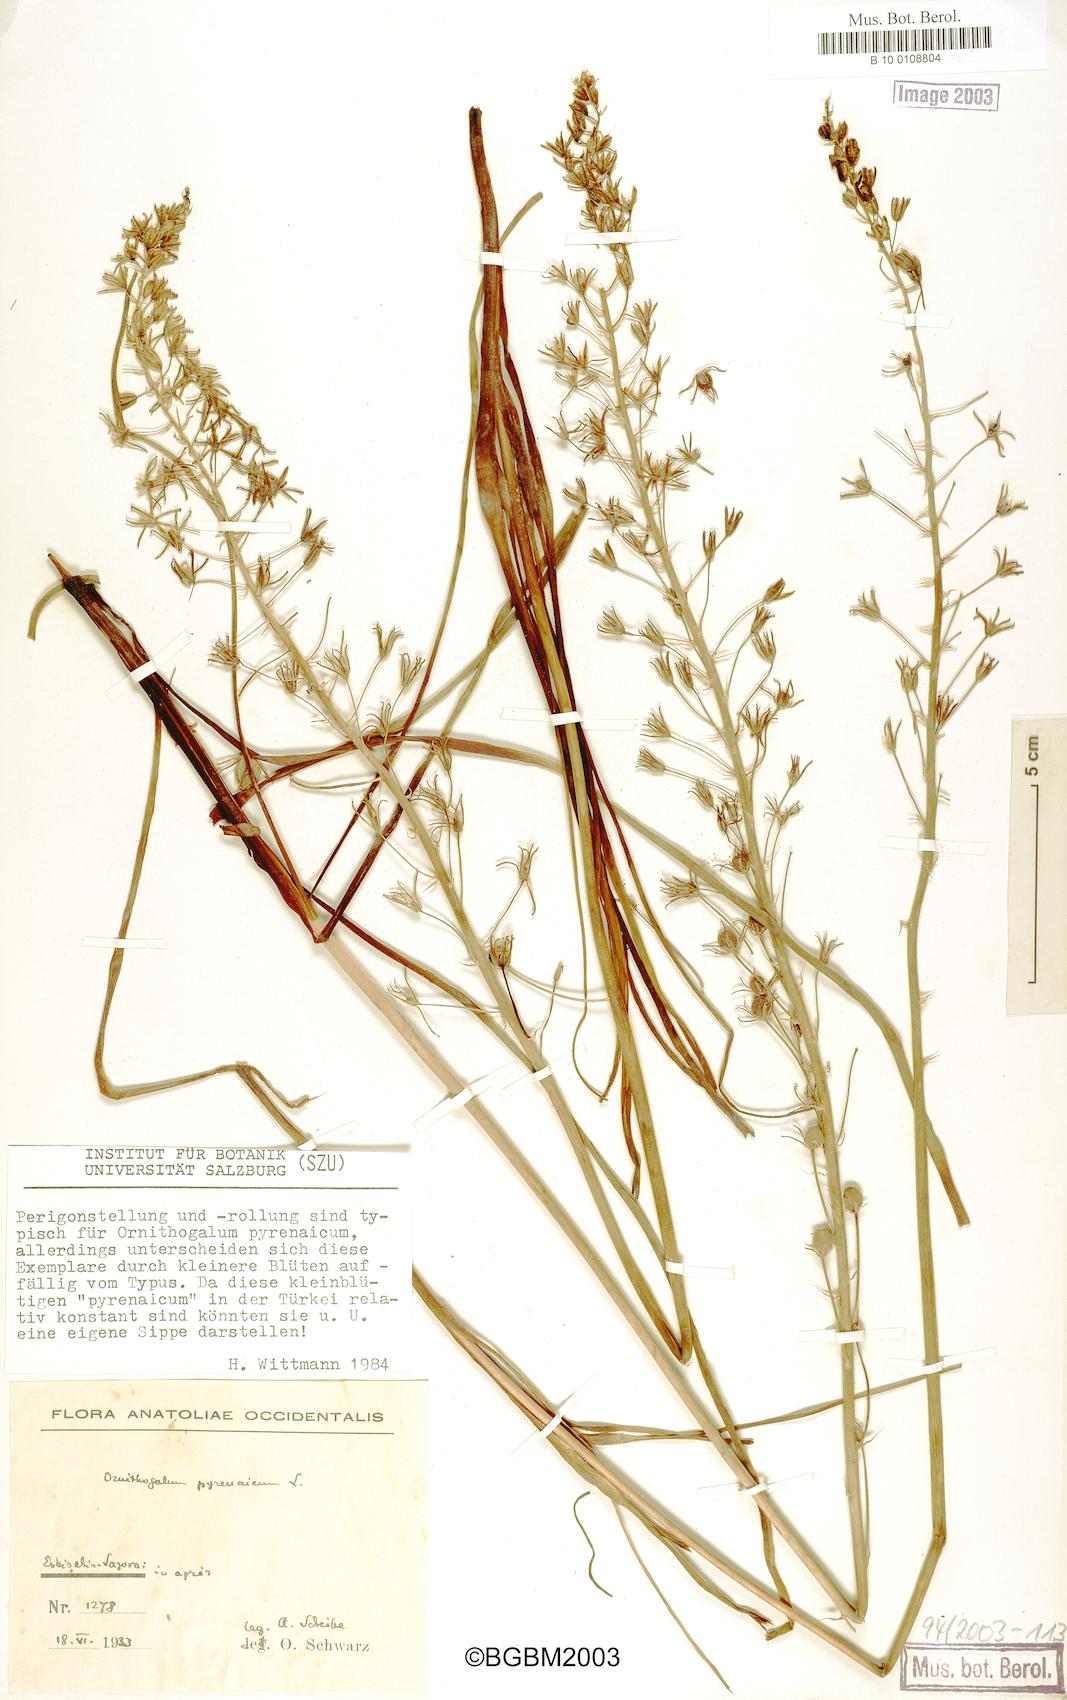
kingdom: Plantae
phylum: Tracheophyta
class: Liliopsida
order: Asparagales
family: Asparagaceae
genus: Ornithogalum
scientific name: Ornithogalum pyrenaicum
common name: Spiked star-of-bethlehem
